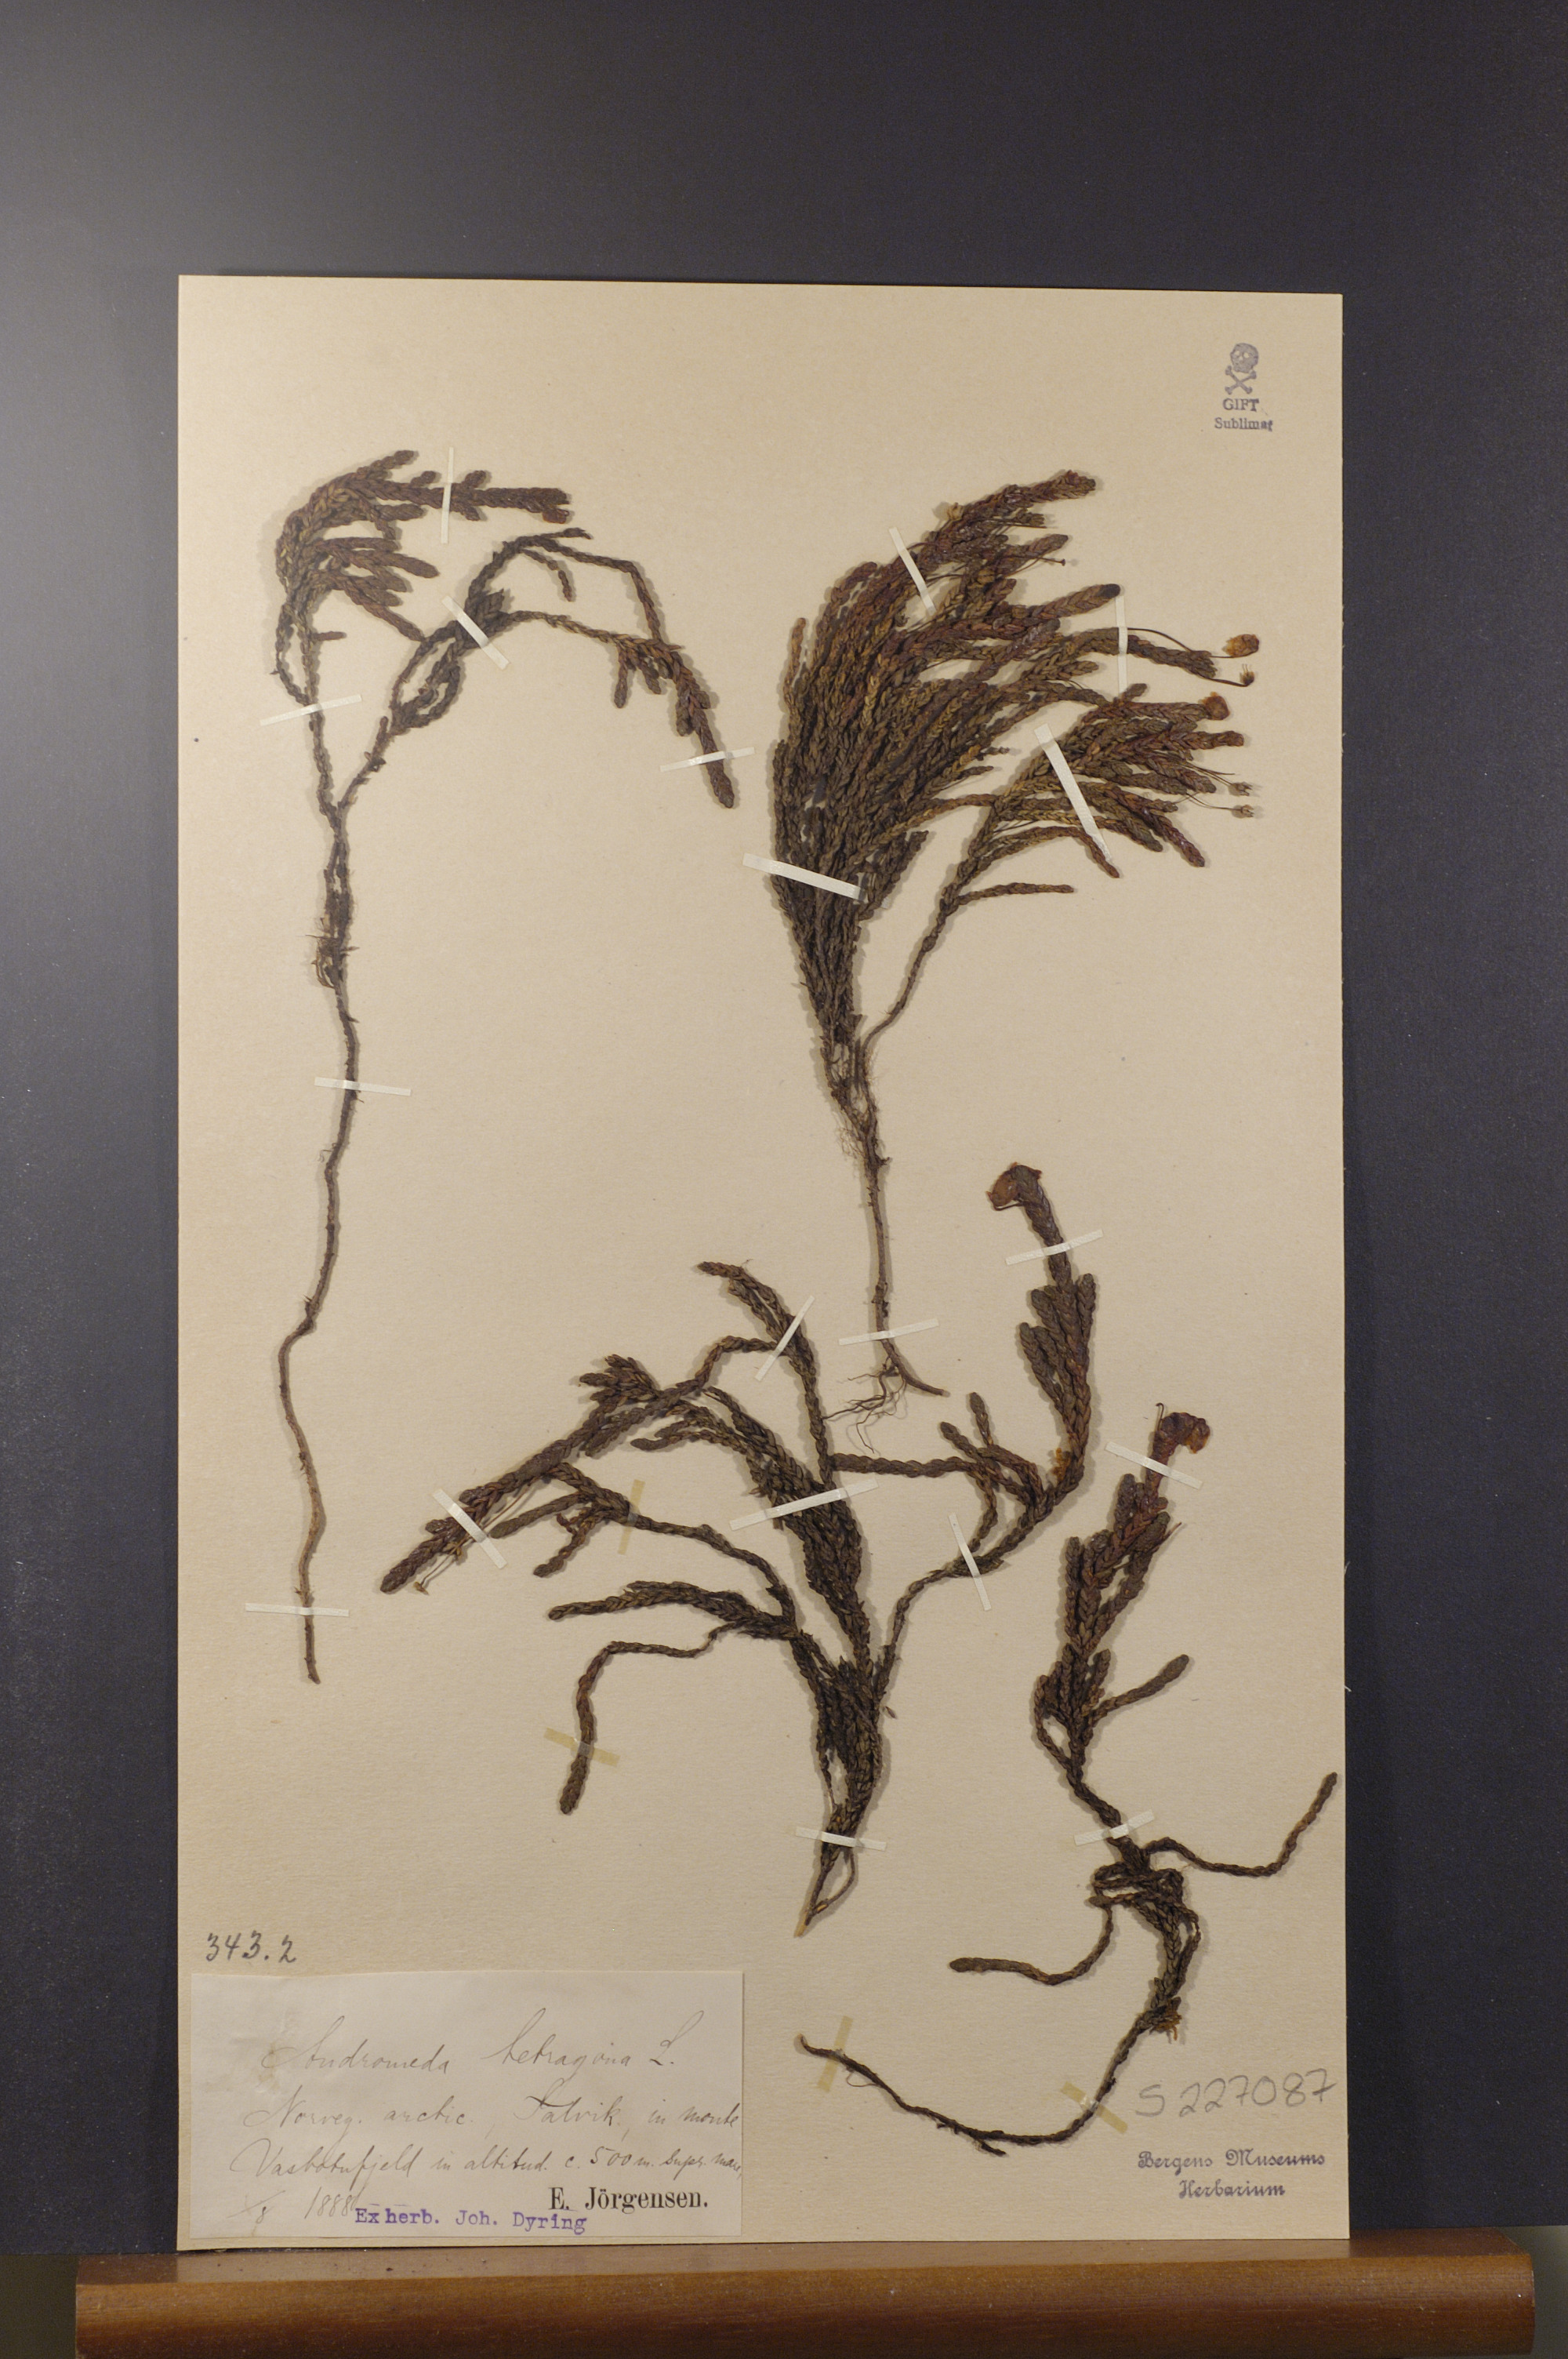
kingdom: Plantae
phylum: Tracheophyta
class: Magnoliopsida
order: Ericales
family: Ericaceae
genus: Cassiope
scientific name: Cassiope tetragona
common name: Arctic bell heather
